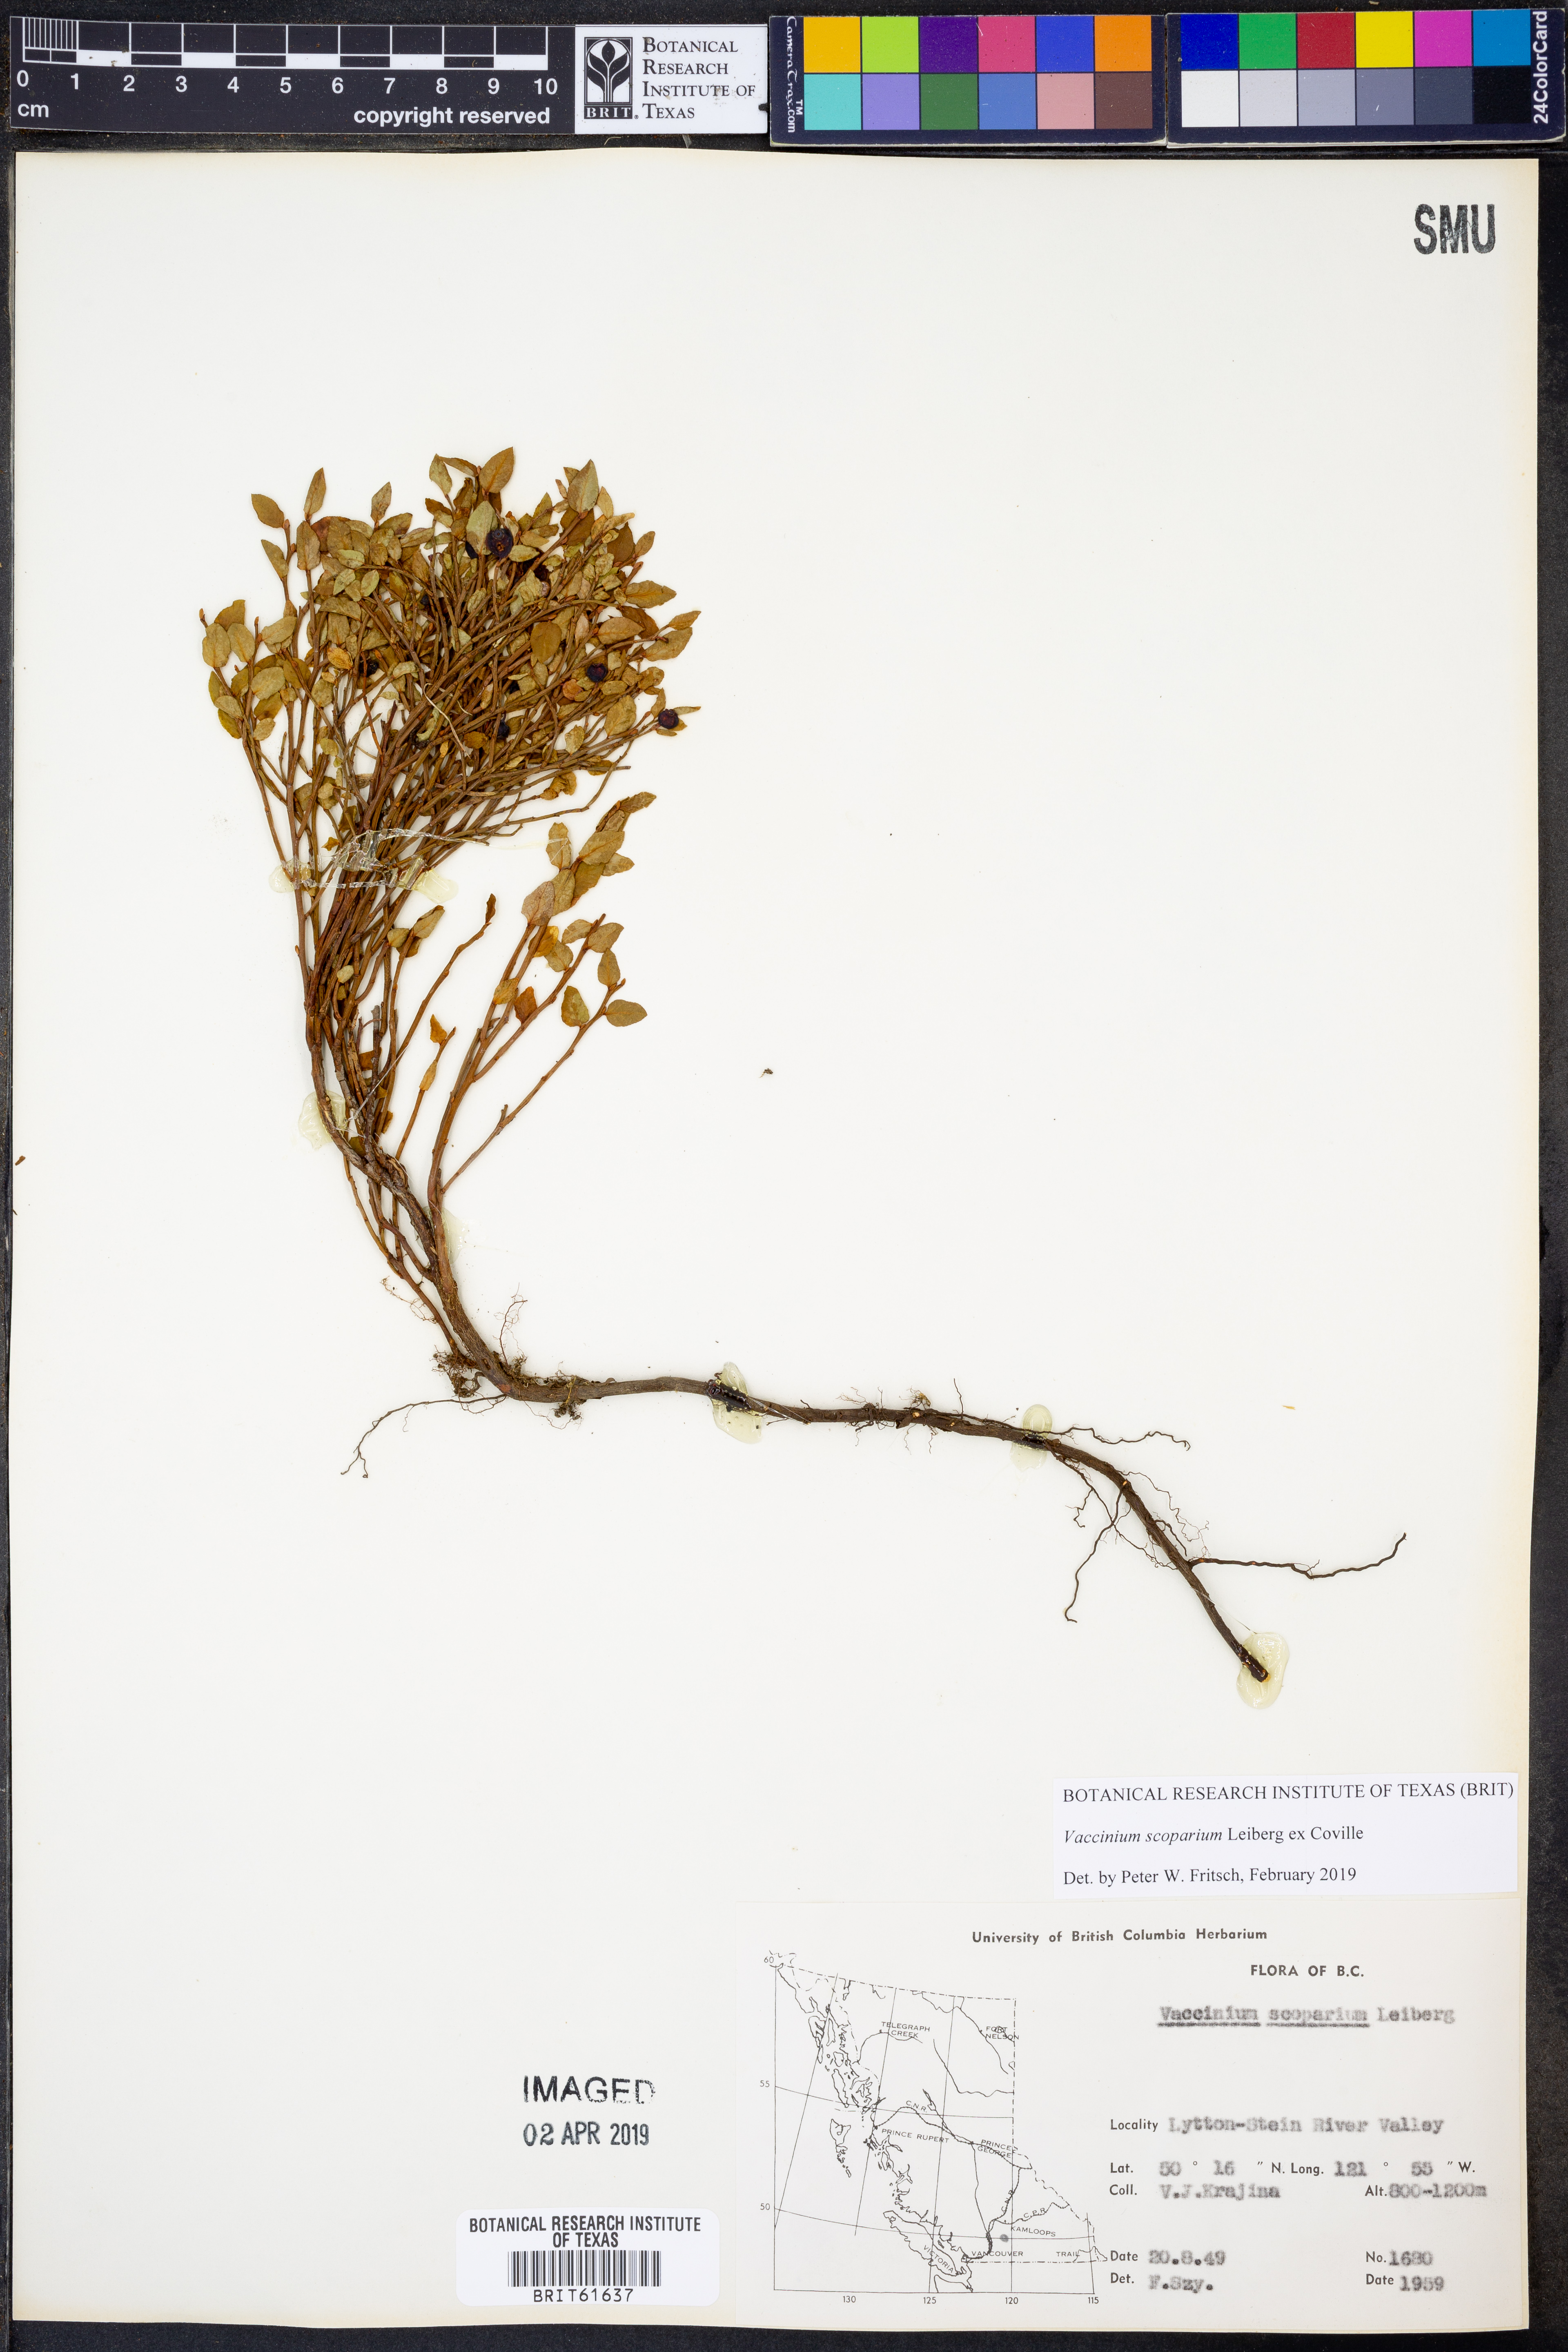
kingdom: Plantae
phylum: Tracheophyta
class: Magnoliopsida
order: Ericales
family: Ericaceae
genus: Vaccinium
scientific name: Vaccinium scoparium
